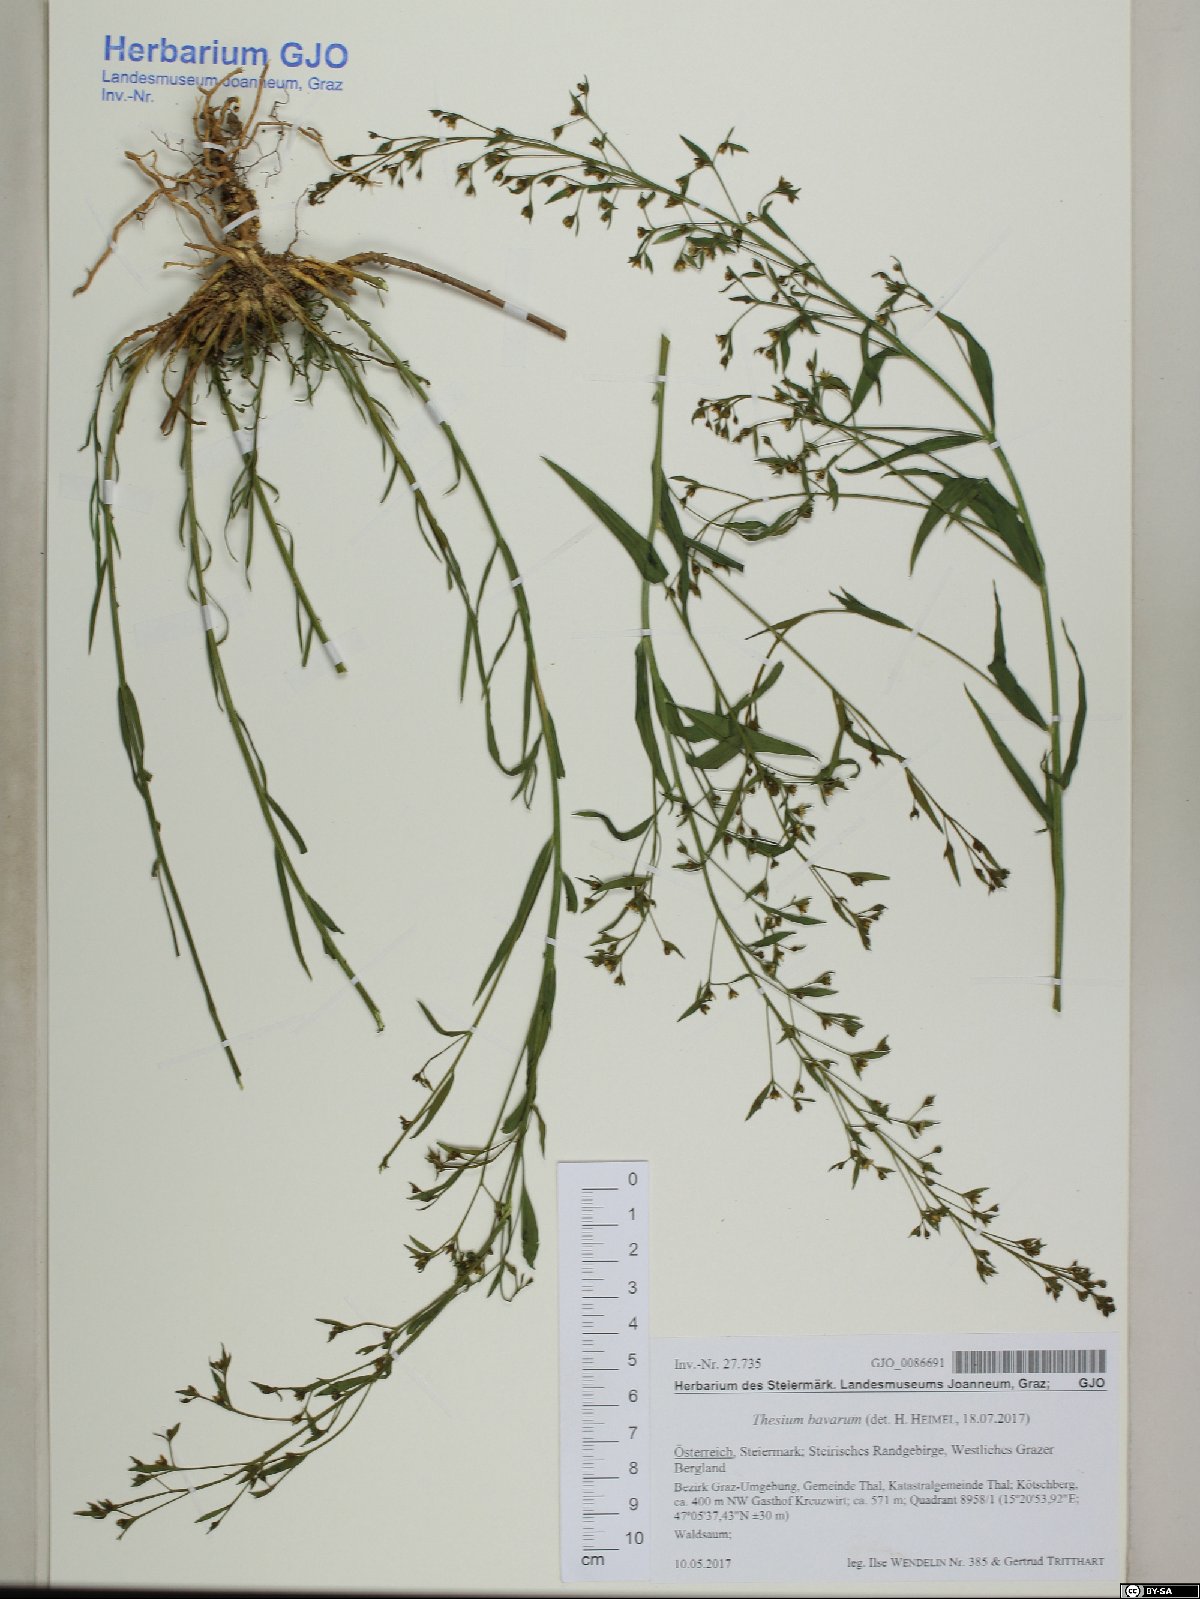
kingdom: Plantae
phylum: Tracheophyta
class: Magnoliopsida
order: Santalales
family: Thesiaceae
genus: Thesium
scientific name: Thesium bavarum
